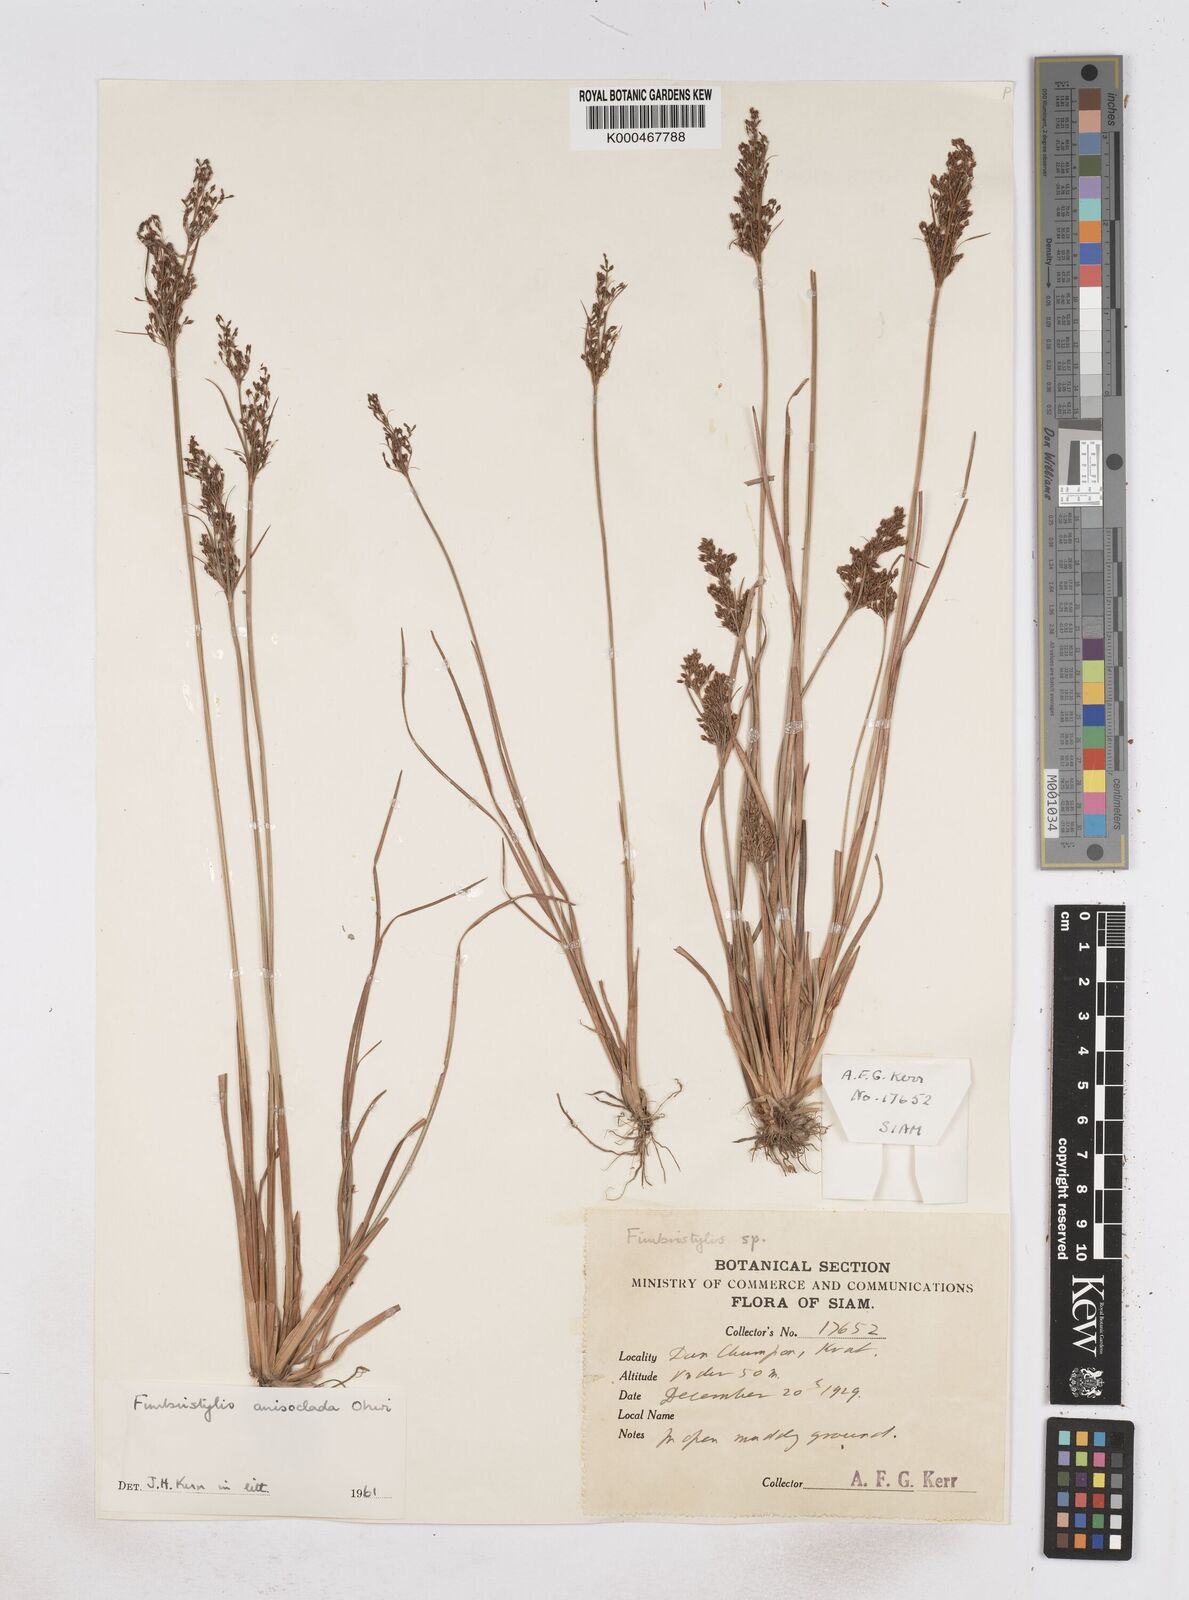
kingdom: Plantae
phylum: Tracheophyta
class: Liliopsida
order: Poales
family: Cyperaceae
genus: Fimbristylis
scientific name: Fimbristylis anisoclada
